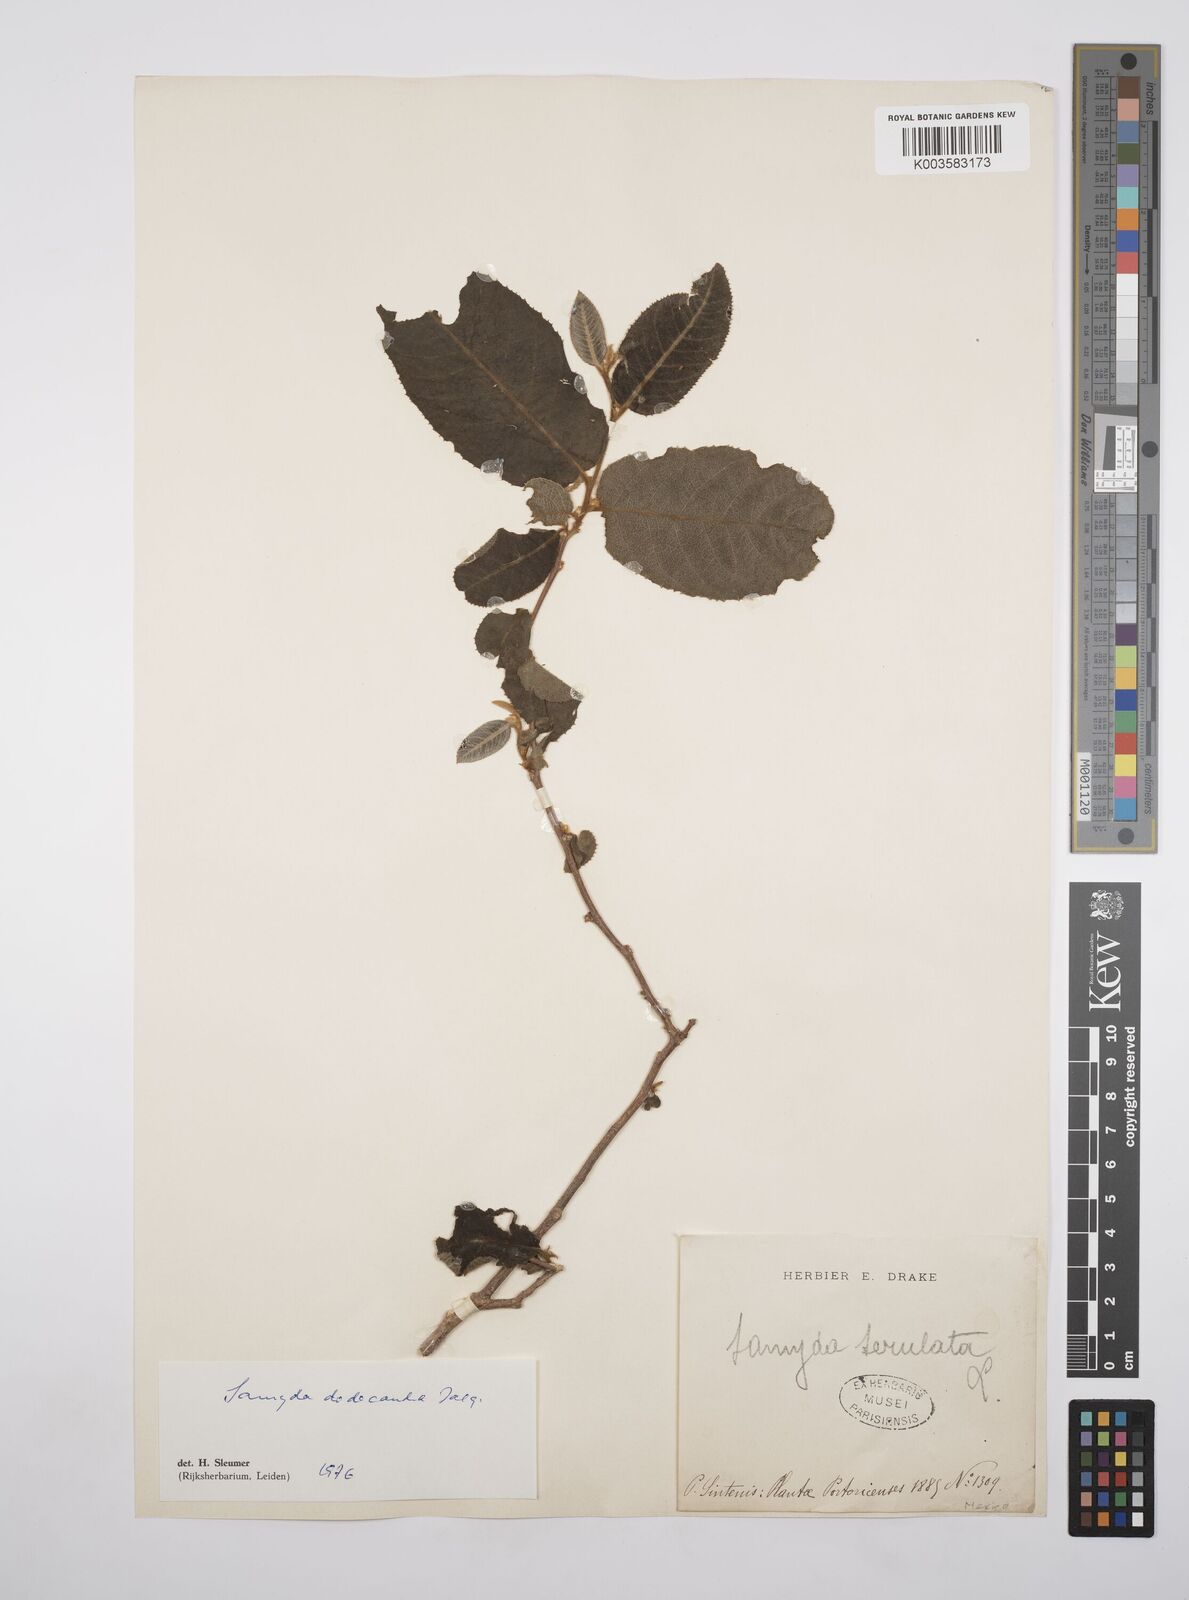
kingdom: Plantae
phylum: Tracheophyta
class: Magnoliopsida
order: Malpighiales
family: Salicaceae
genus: Casearia
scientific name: Casearia dodecandra
